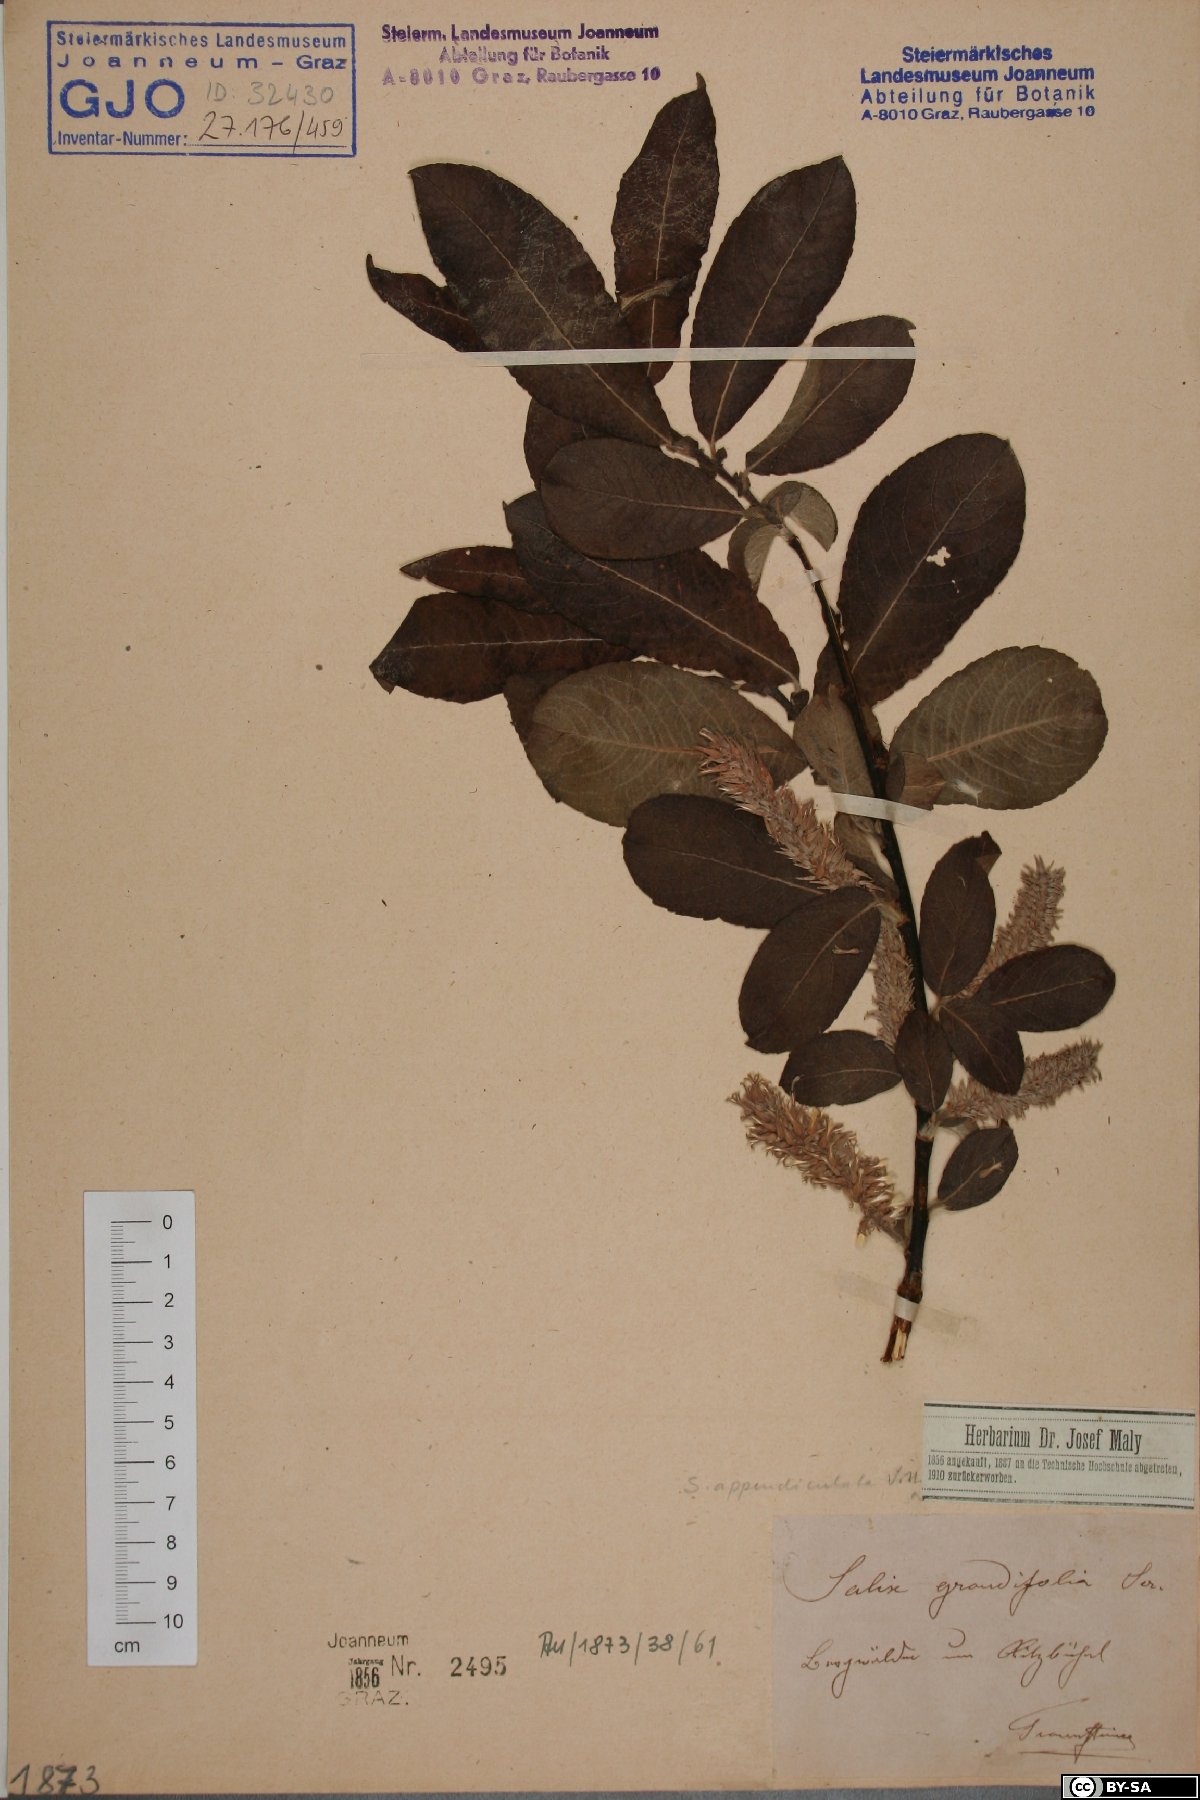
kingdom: Plantae
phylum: Tracheophyta
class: Magnoliopsida
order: Malpighiales
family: Salicaceae
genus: Salix
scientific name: Salix appendiculata
